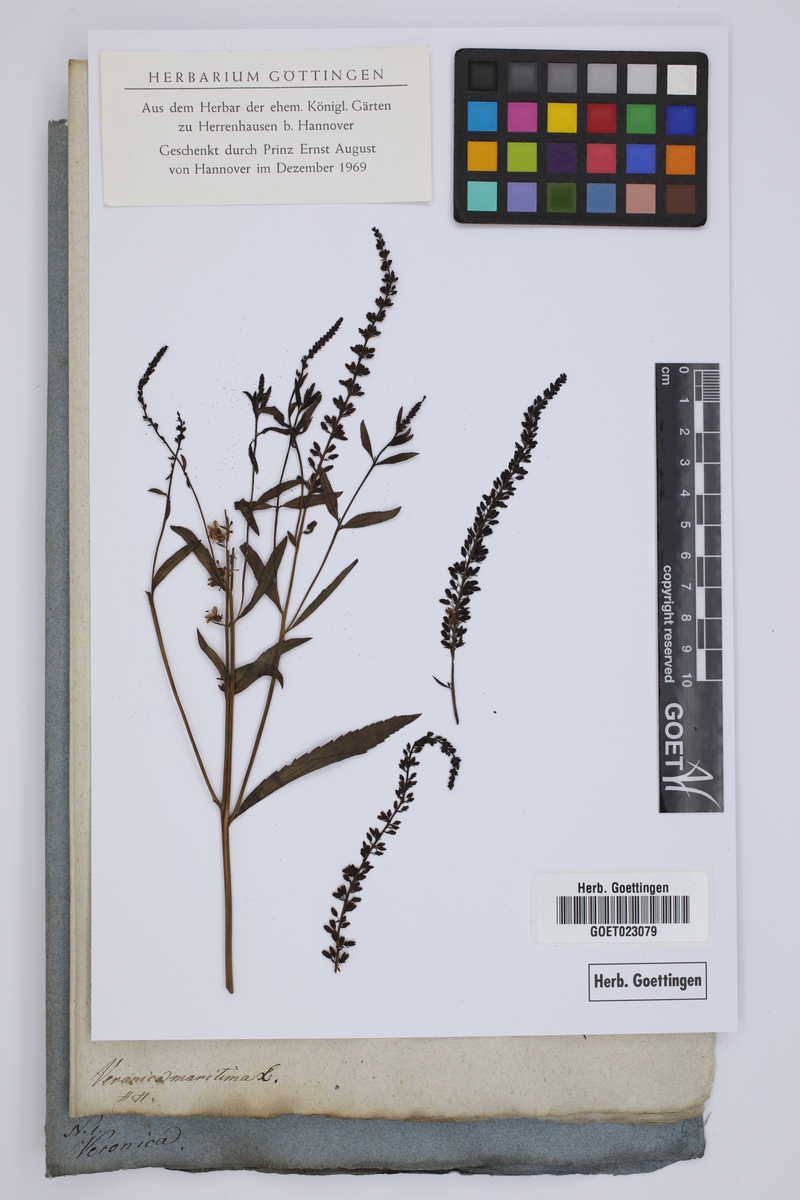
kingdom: Plantae
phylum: Tracheophyta
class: Magnoliopsida
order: Lamiales
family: Plantaginaceae
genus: Veronica
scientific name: Veronica longifolia
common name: Garden speedwell
